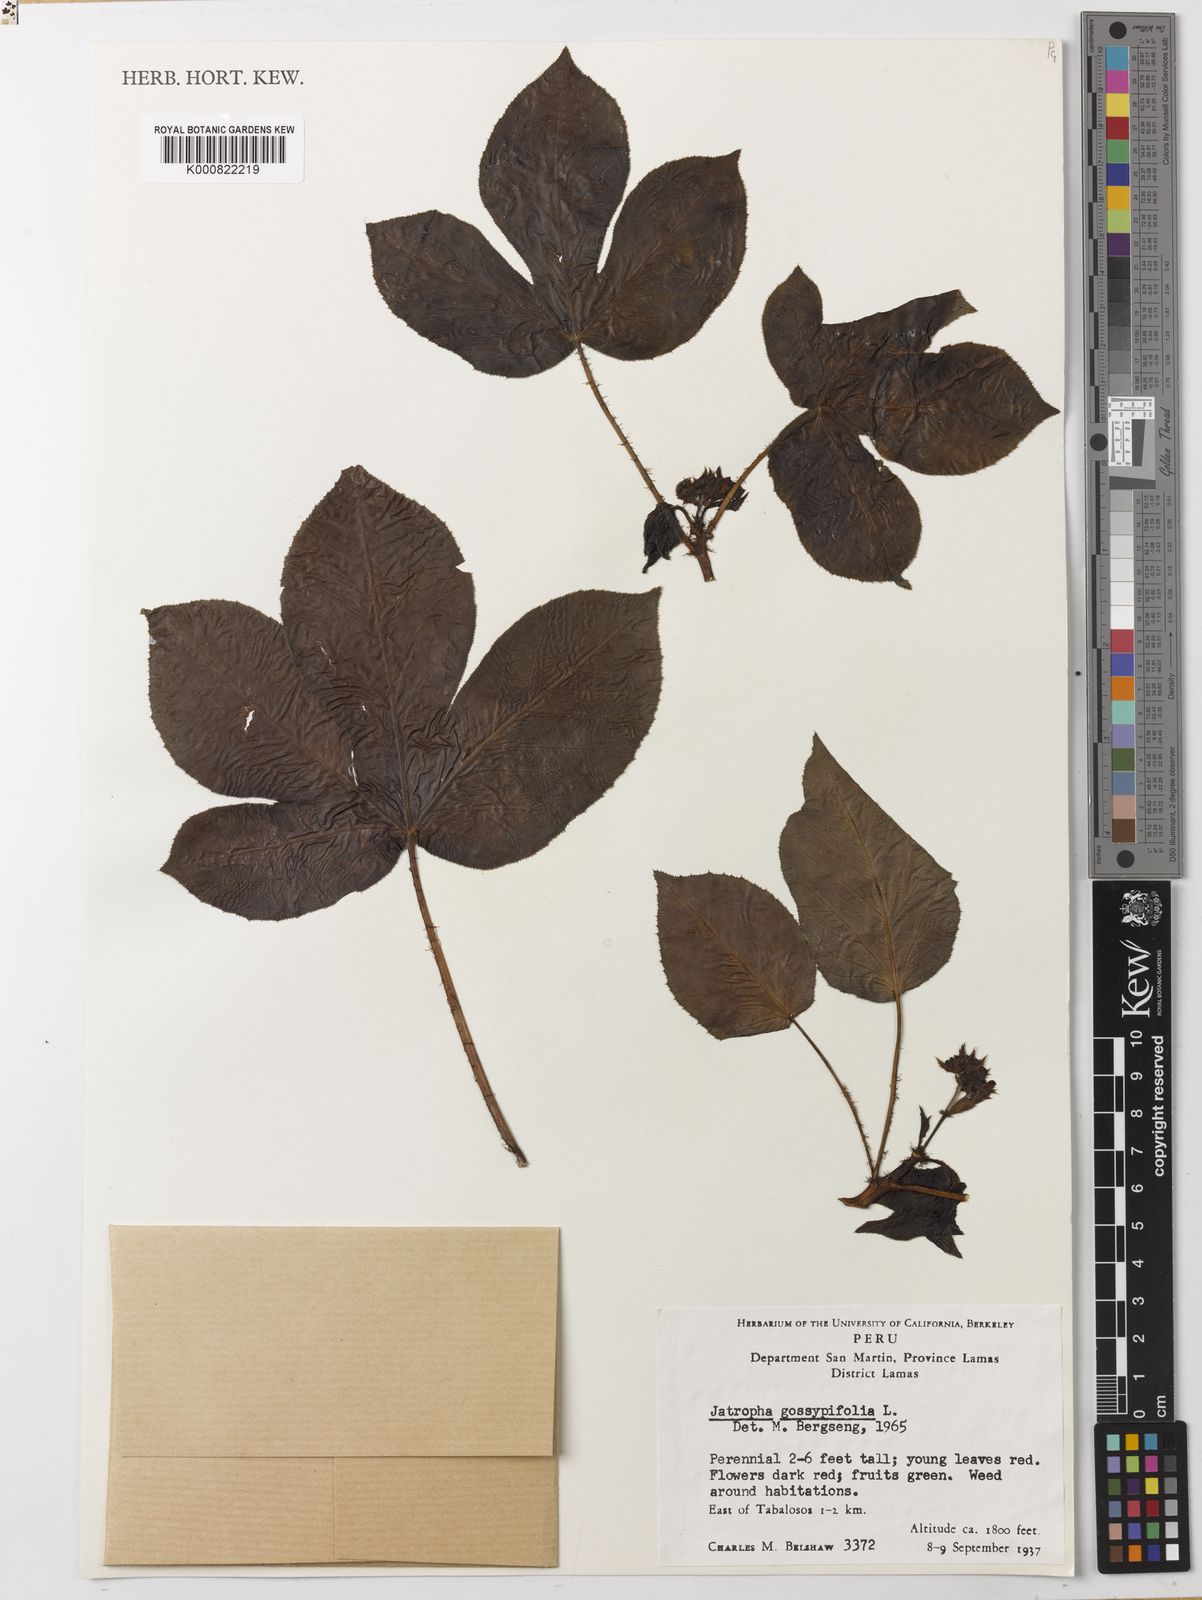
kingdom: Plantae
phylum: Tracheophyta
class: Magnoliopsida
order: Malpighiales
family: Euphorbiaceae
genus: Jatropha
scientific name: Jatropha gossypiifolia
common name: Bellyache bush
